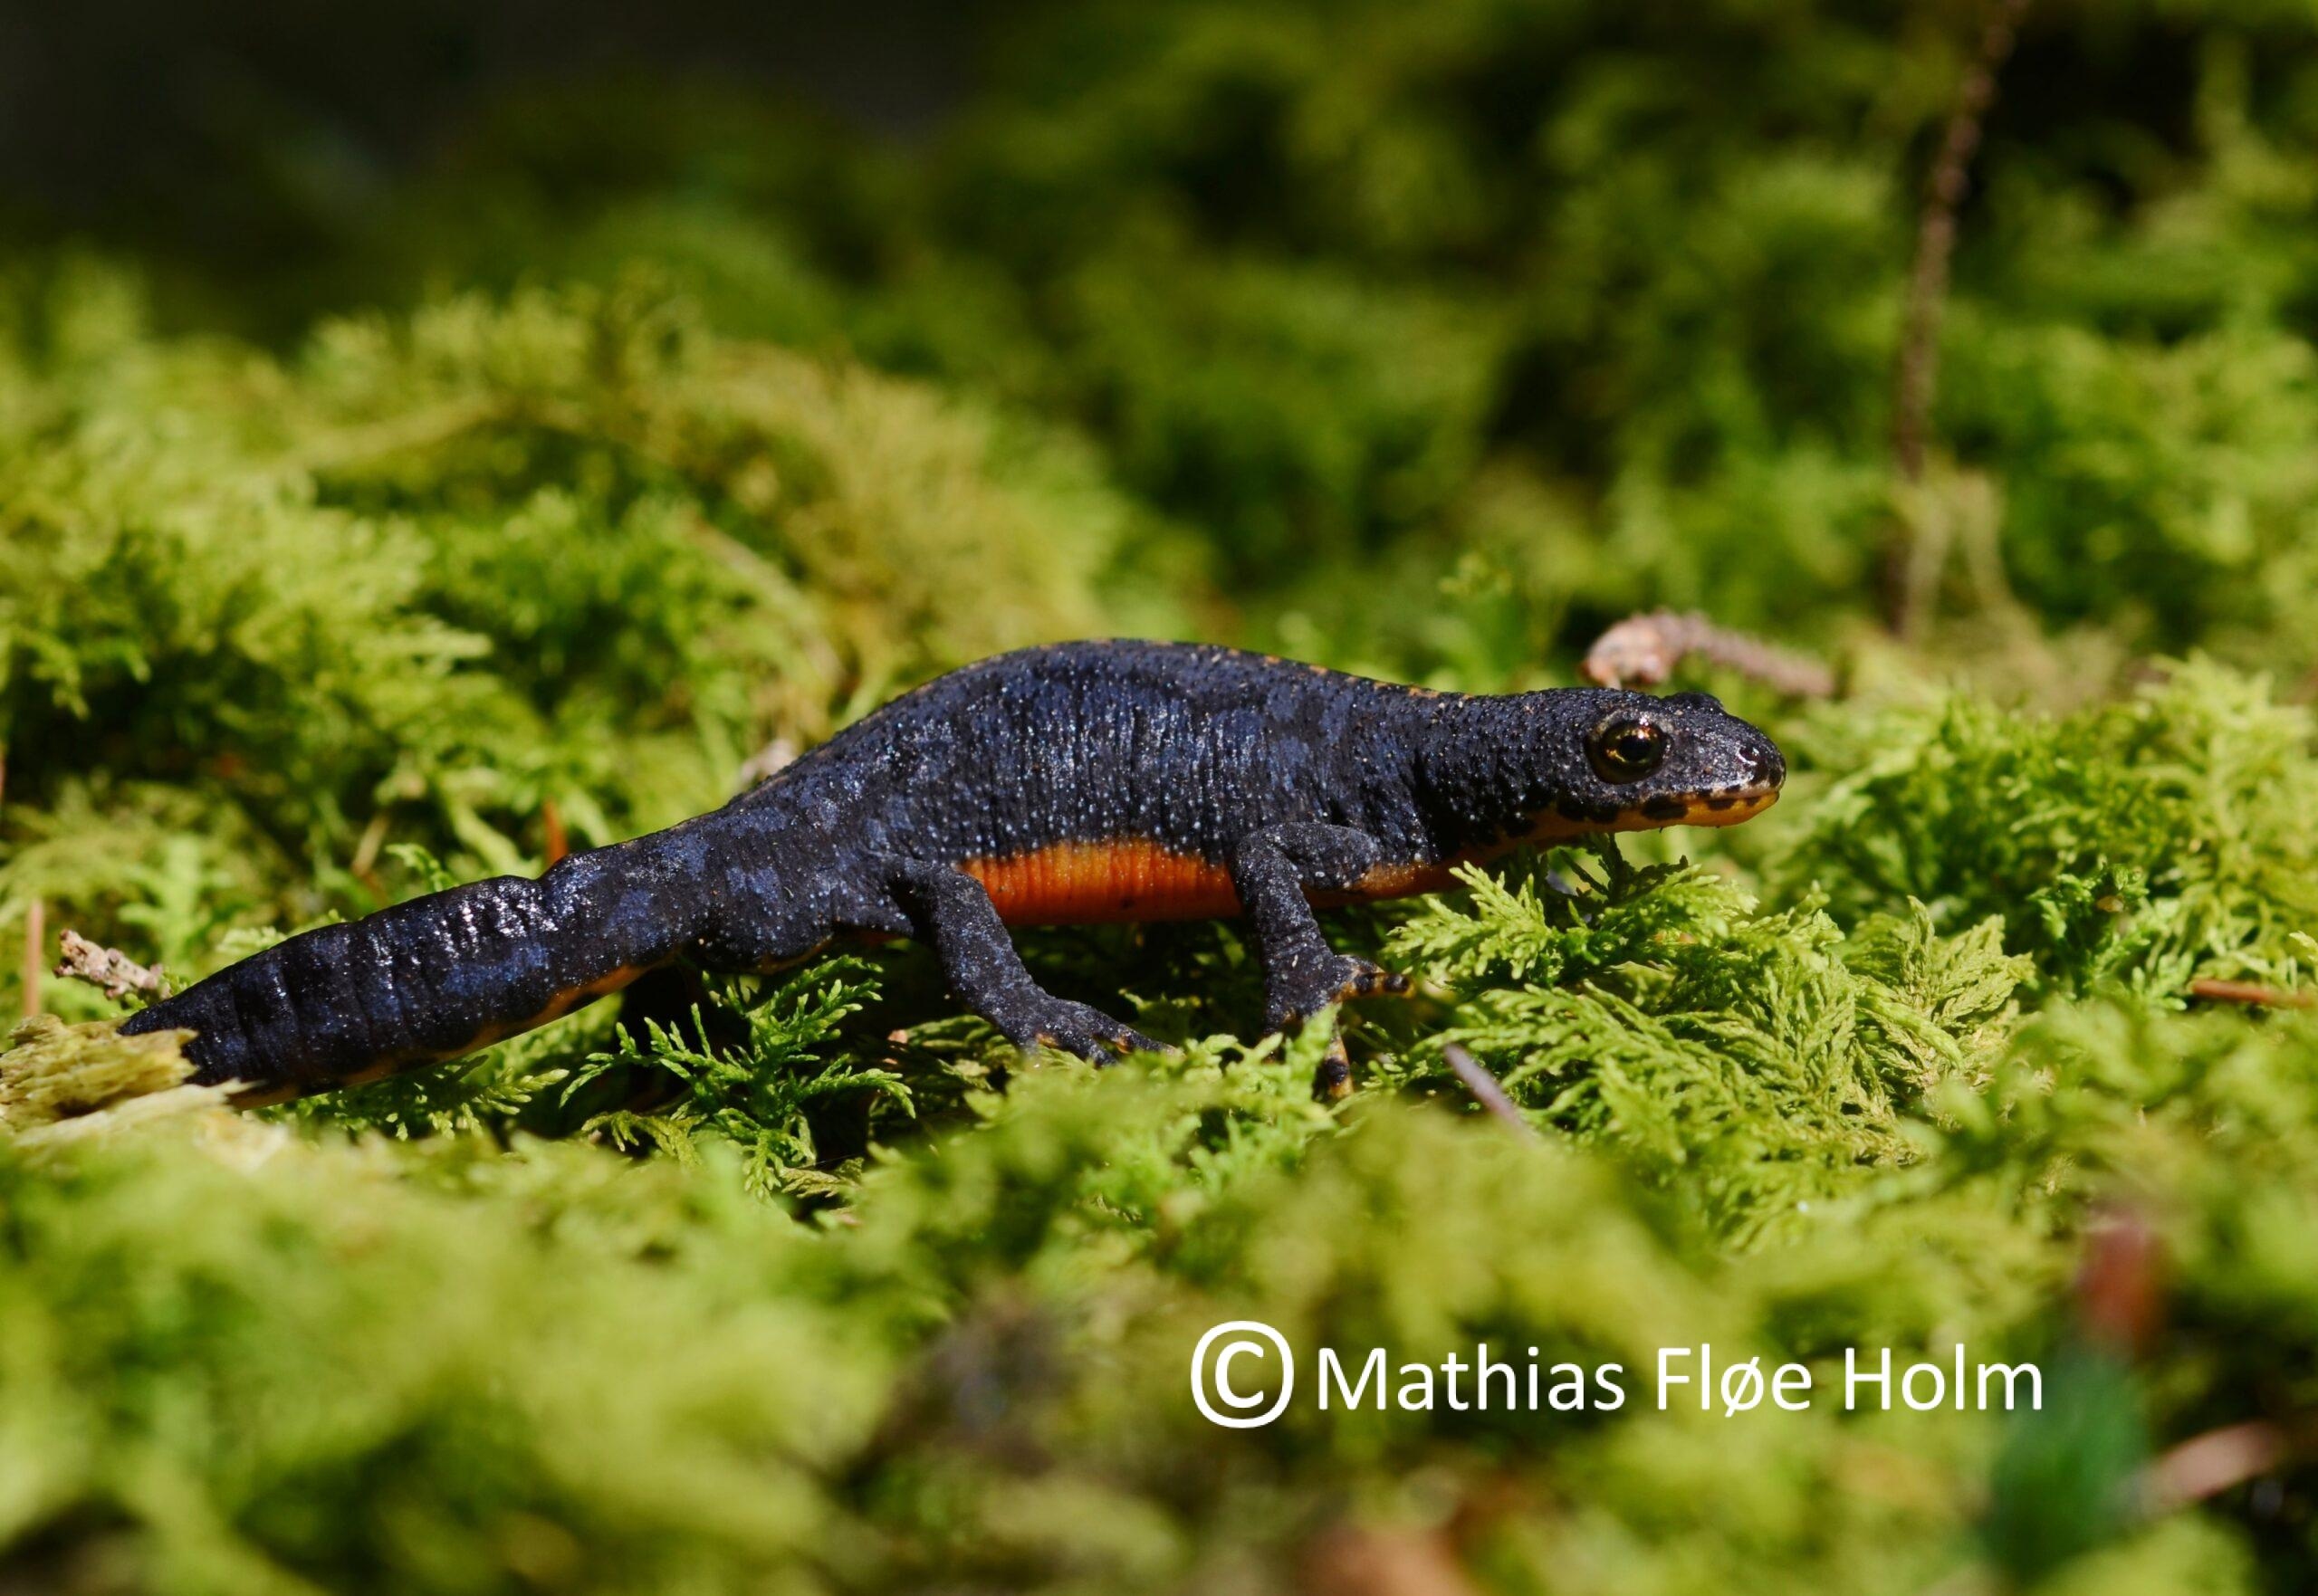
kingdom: Animalia
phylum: Chordata
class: Amphibia
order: Caudata
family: Salamandridae
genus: Ichthyosaura
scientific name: Ichthyosaura alpestris
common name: Bjergsalamander
